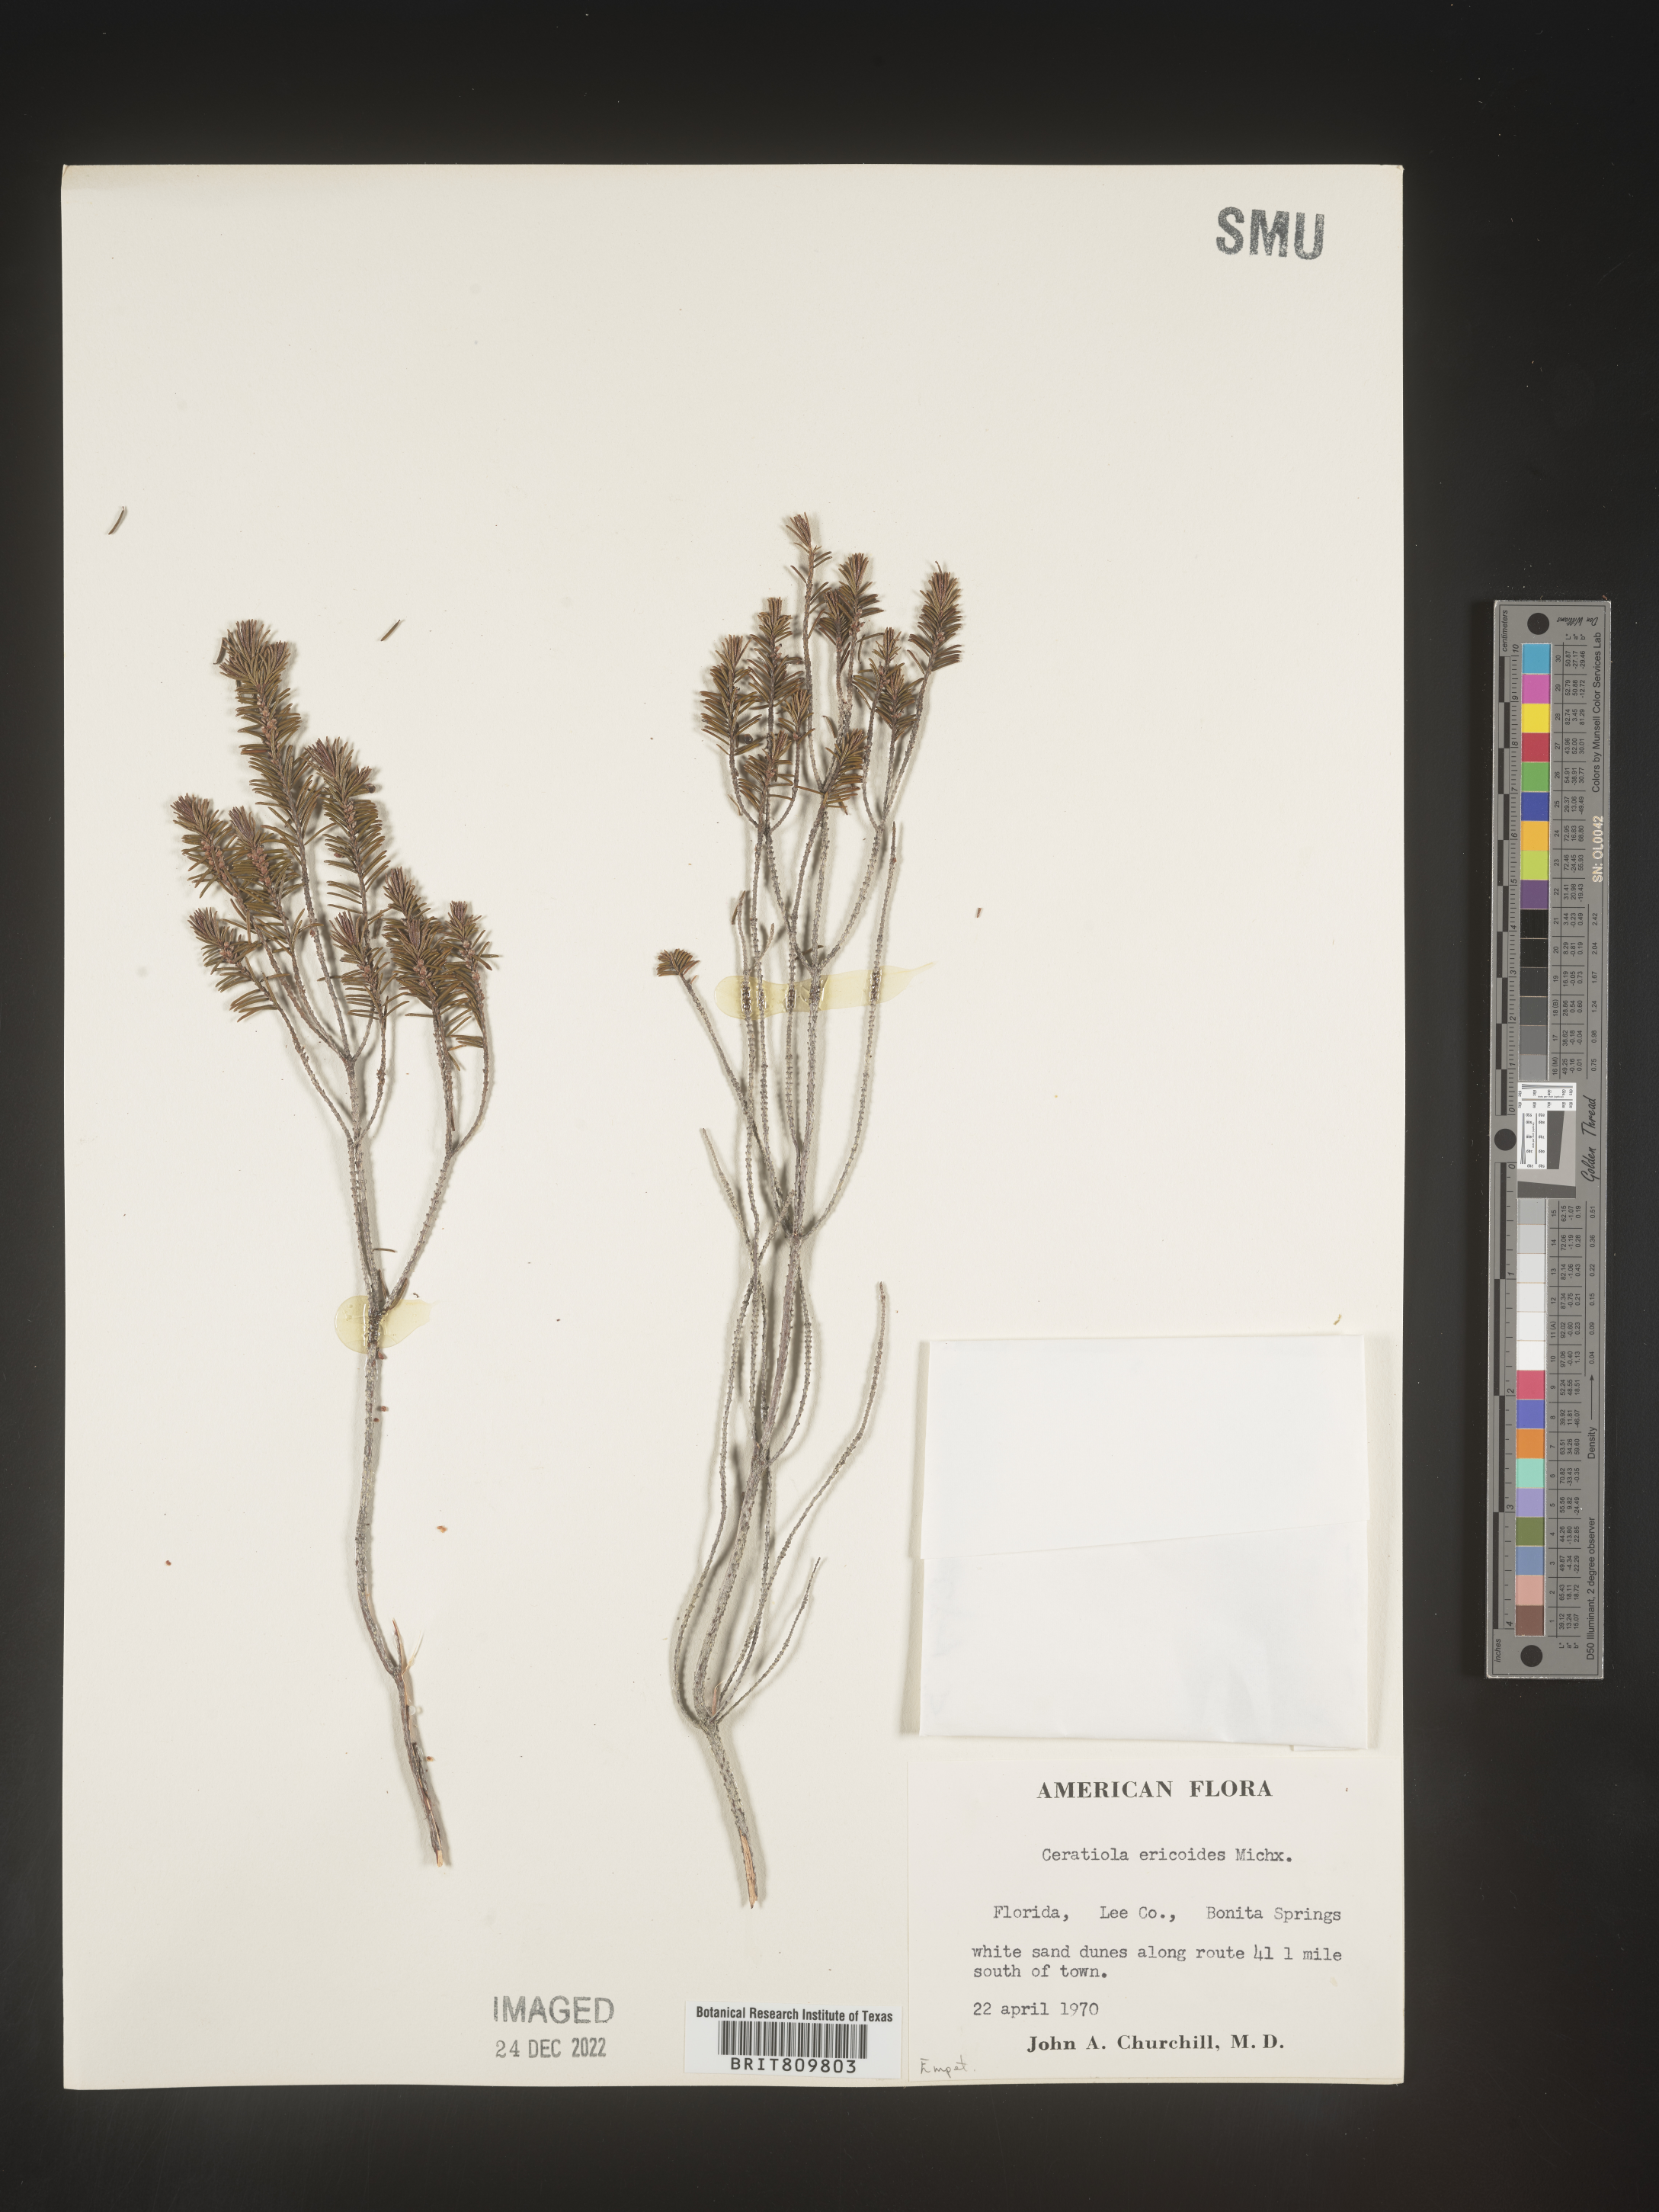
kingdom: Plantae
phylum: Tracheophyta
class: Magnoliopsida
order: Ericales
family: Ericaceae
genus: Ceratiola
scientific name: Ceratiola ericoides
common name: Sandhill-rosemary
